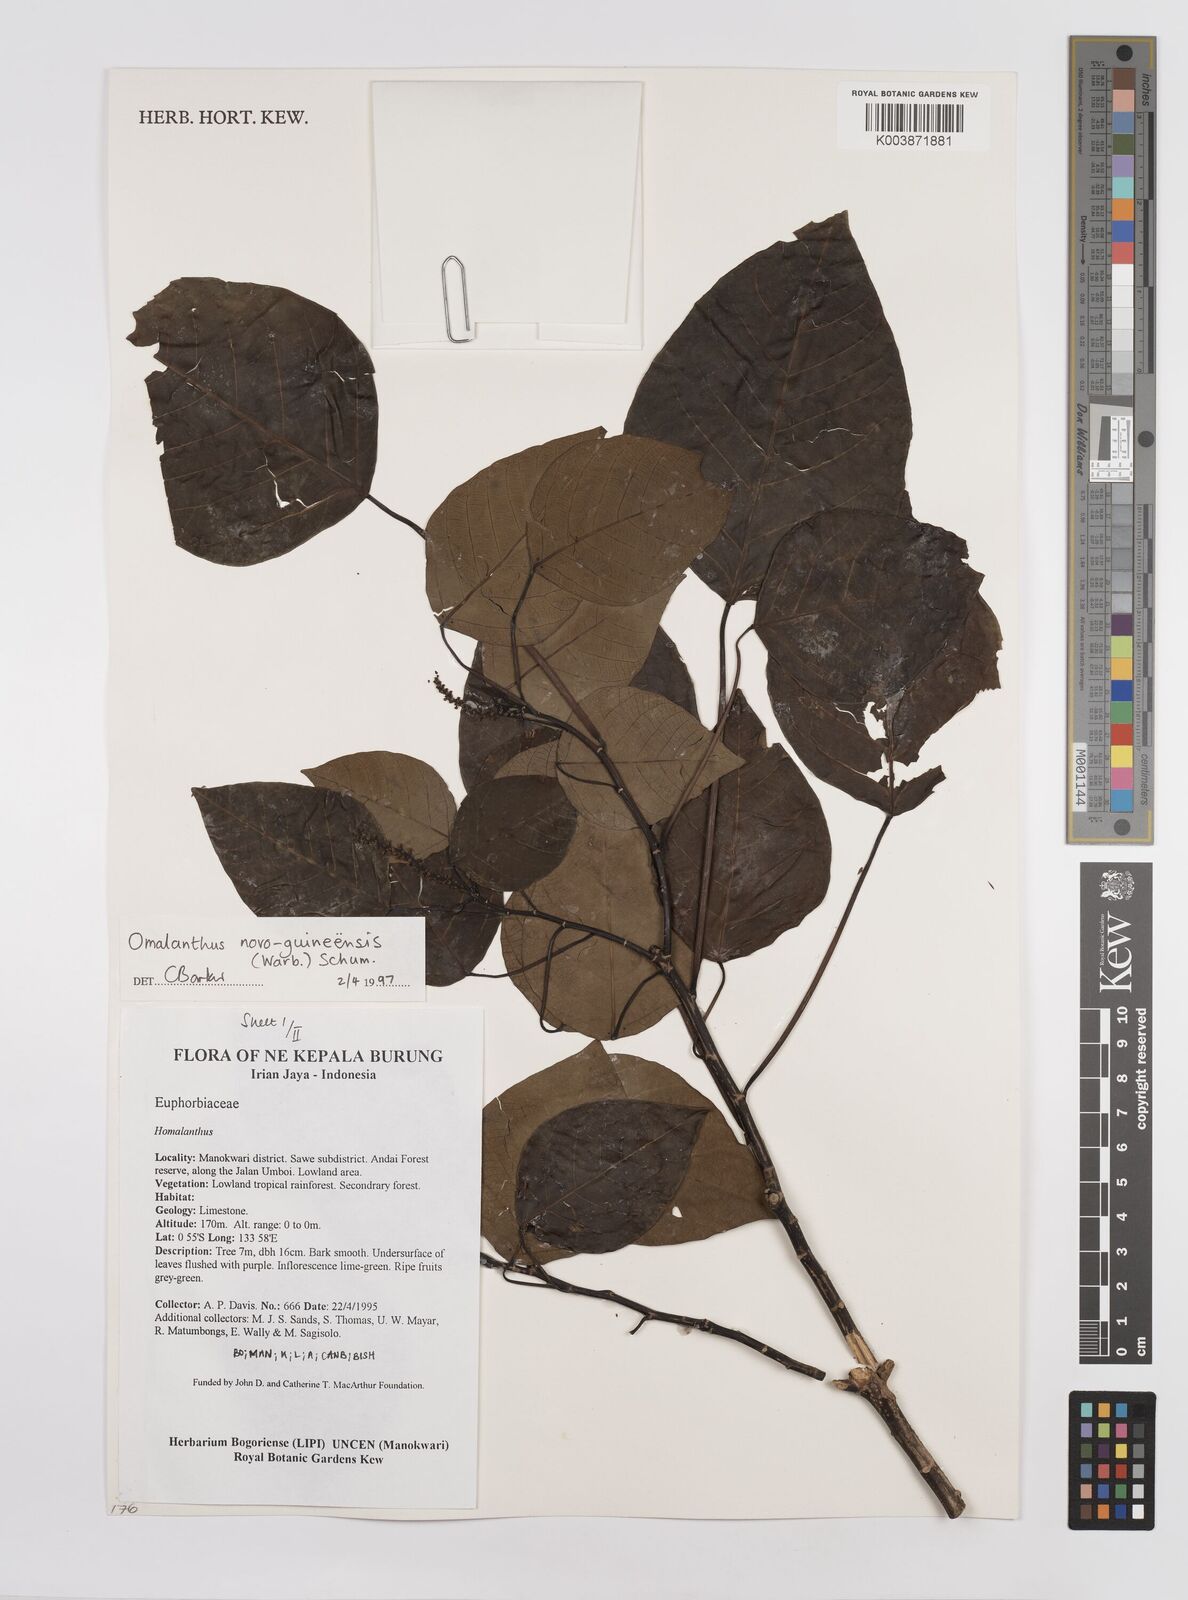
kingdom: Plantae
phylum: Tracheophyta
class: Magnoliopsida
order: Malpighiales
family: Euphorbiaceae
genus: Homalanthus
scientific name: Homalanthus novoguineensis
